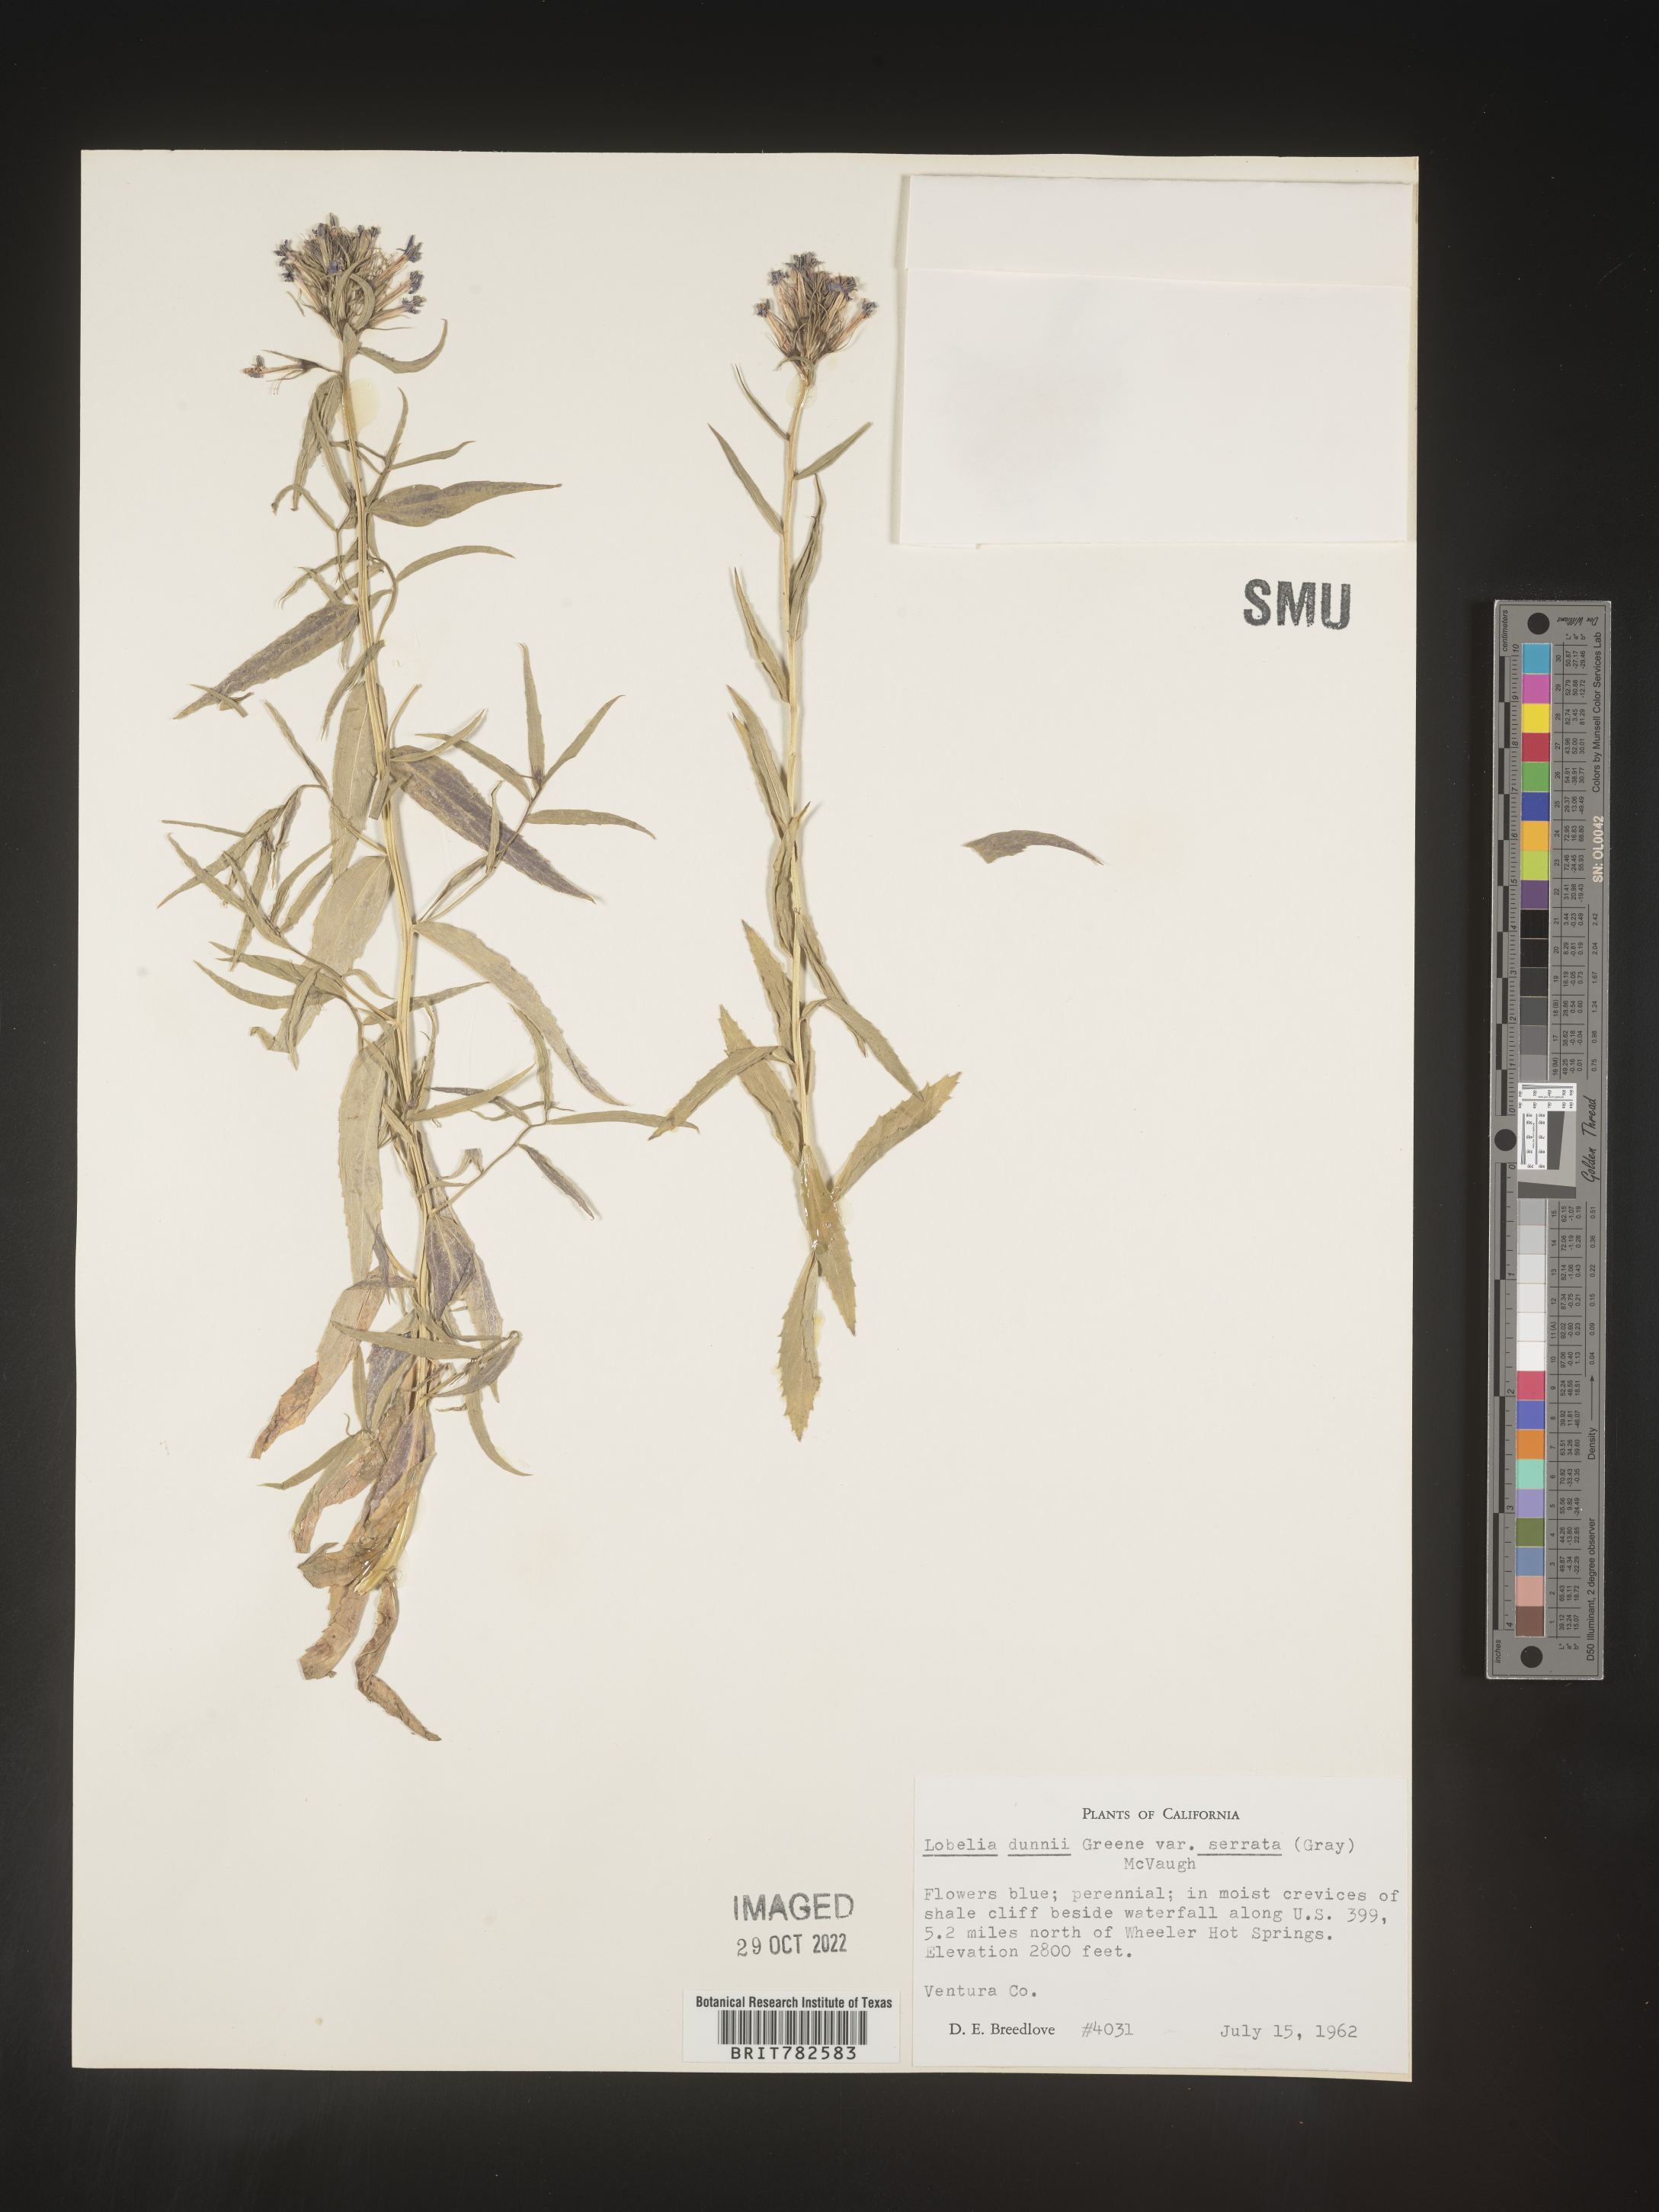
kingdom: Plantae
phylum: Tracheophyta
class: Magnoliopsida
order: Asterales
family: Campanulaceae
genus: Lobelia
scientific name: Lobelia
